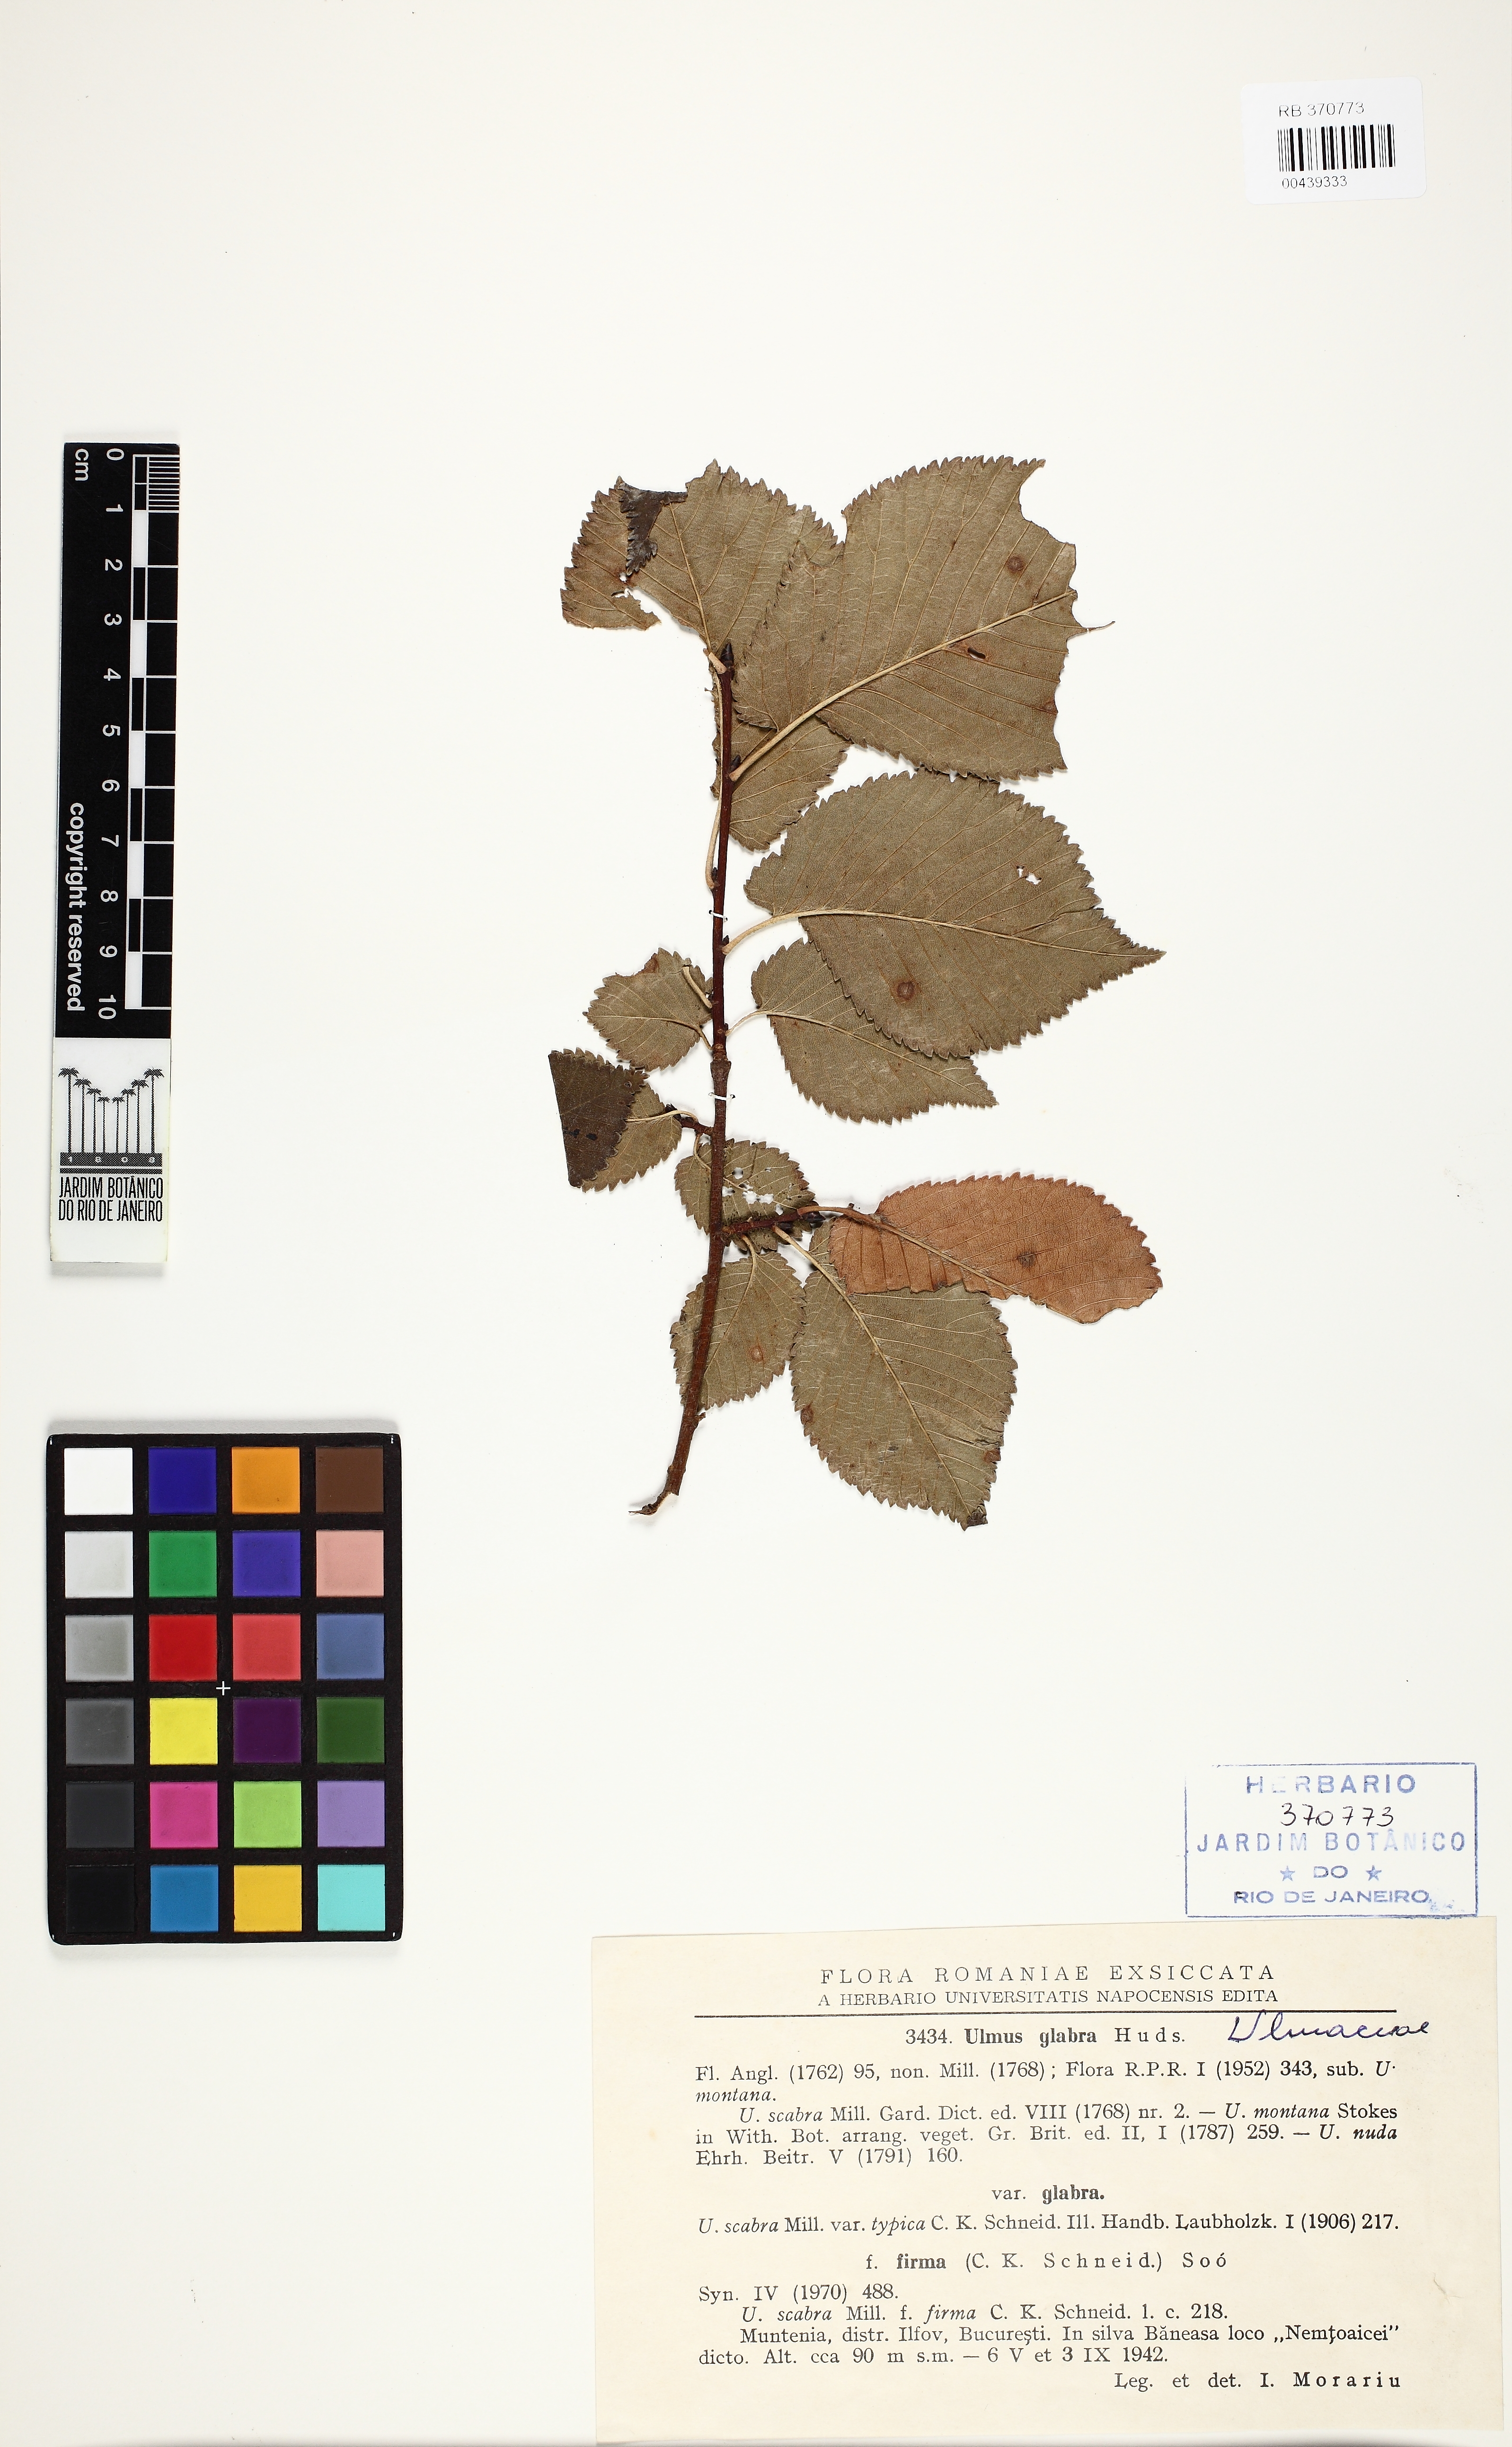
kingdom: Plantae
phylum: Tracheophyta
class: Magnoliopsida
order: Rosales
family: Ulmaceae
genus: Ulmus
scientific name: Ulmus glabra
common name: Wych elm
